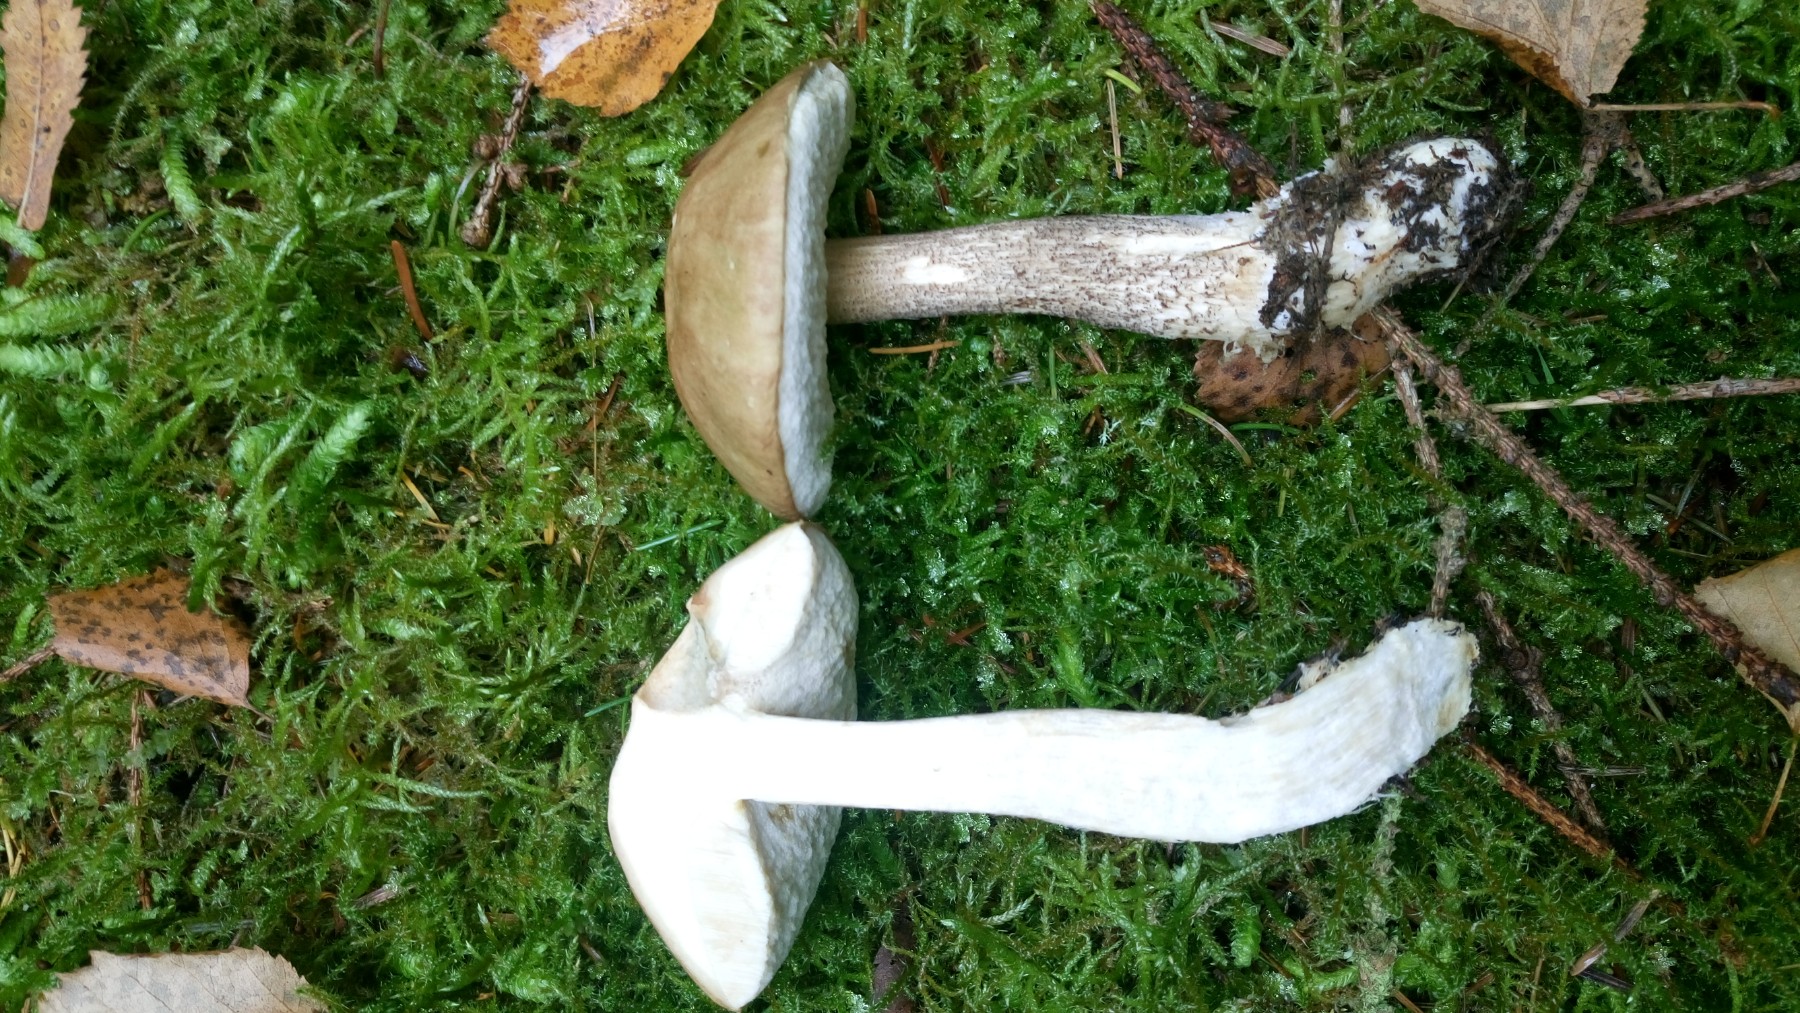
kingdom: Fungi
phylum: Basidiomycota
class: Agaricomycetes
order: Boletales
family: Boletaceae
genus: Leccinum
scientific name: Leccinum
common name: skælrørhat
